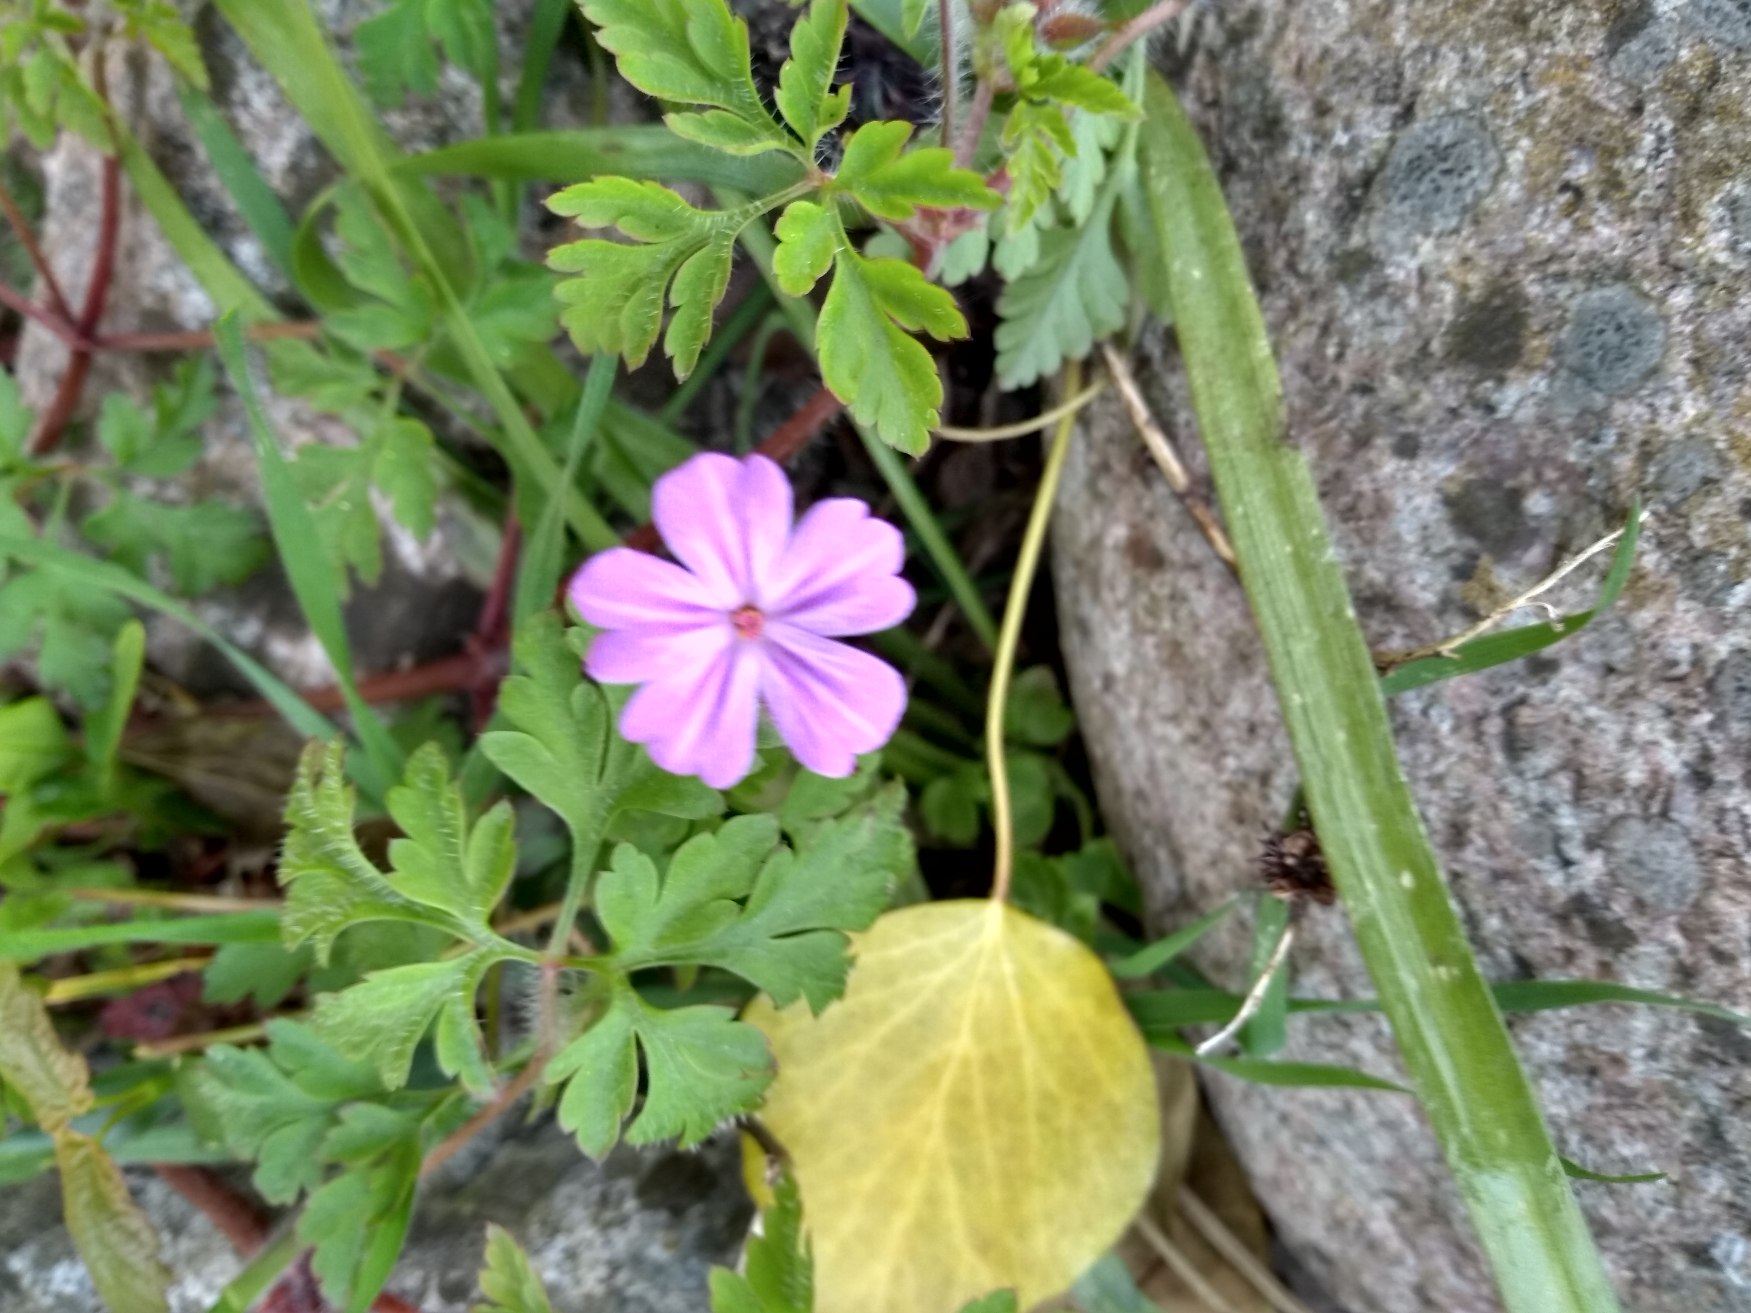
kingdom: Plantae
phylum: Tracheophyta
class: Magnoliopsida
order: Geraniales
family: Geraniaceae
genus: Geranium
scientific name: Geranium robertianum
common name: Stinkende storkenæb
